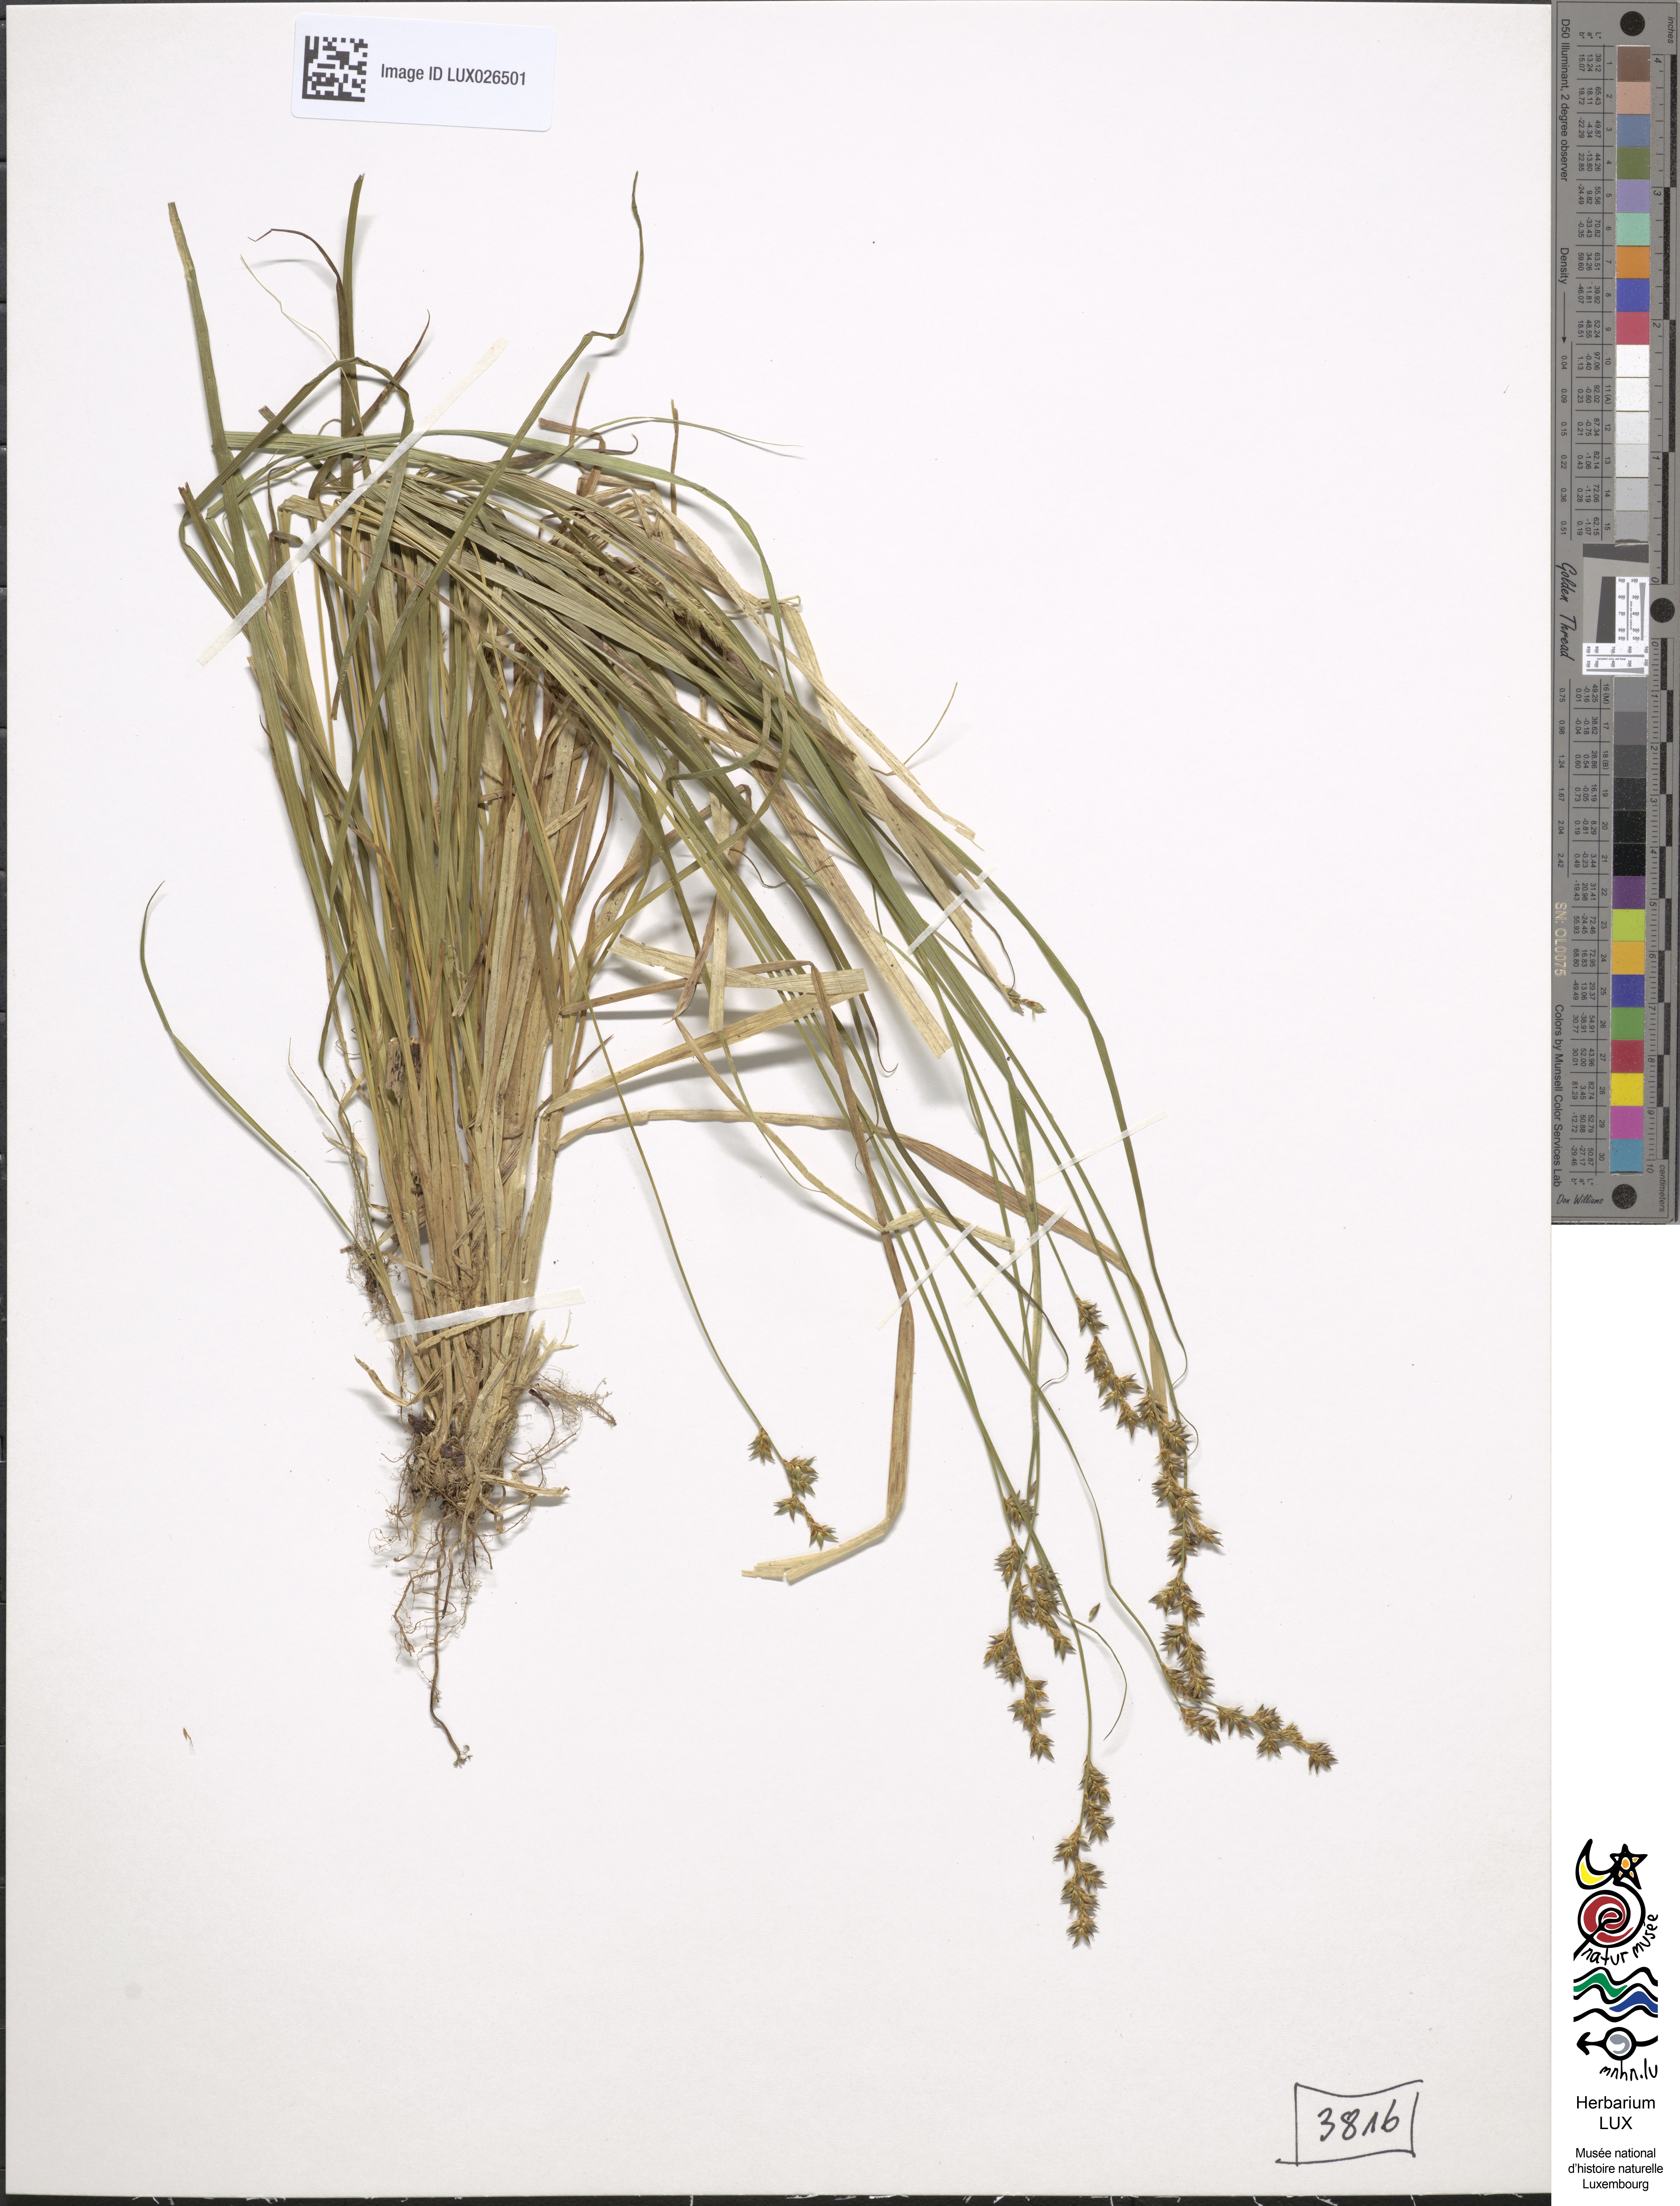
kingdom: Plantae
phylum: Tracheophyta
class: Liliopsida
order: Poales
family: Cyperaceae
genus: Carex
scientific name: Carex elongata
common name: Elongated sedge
